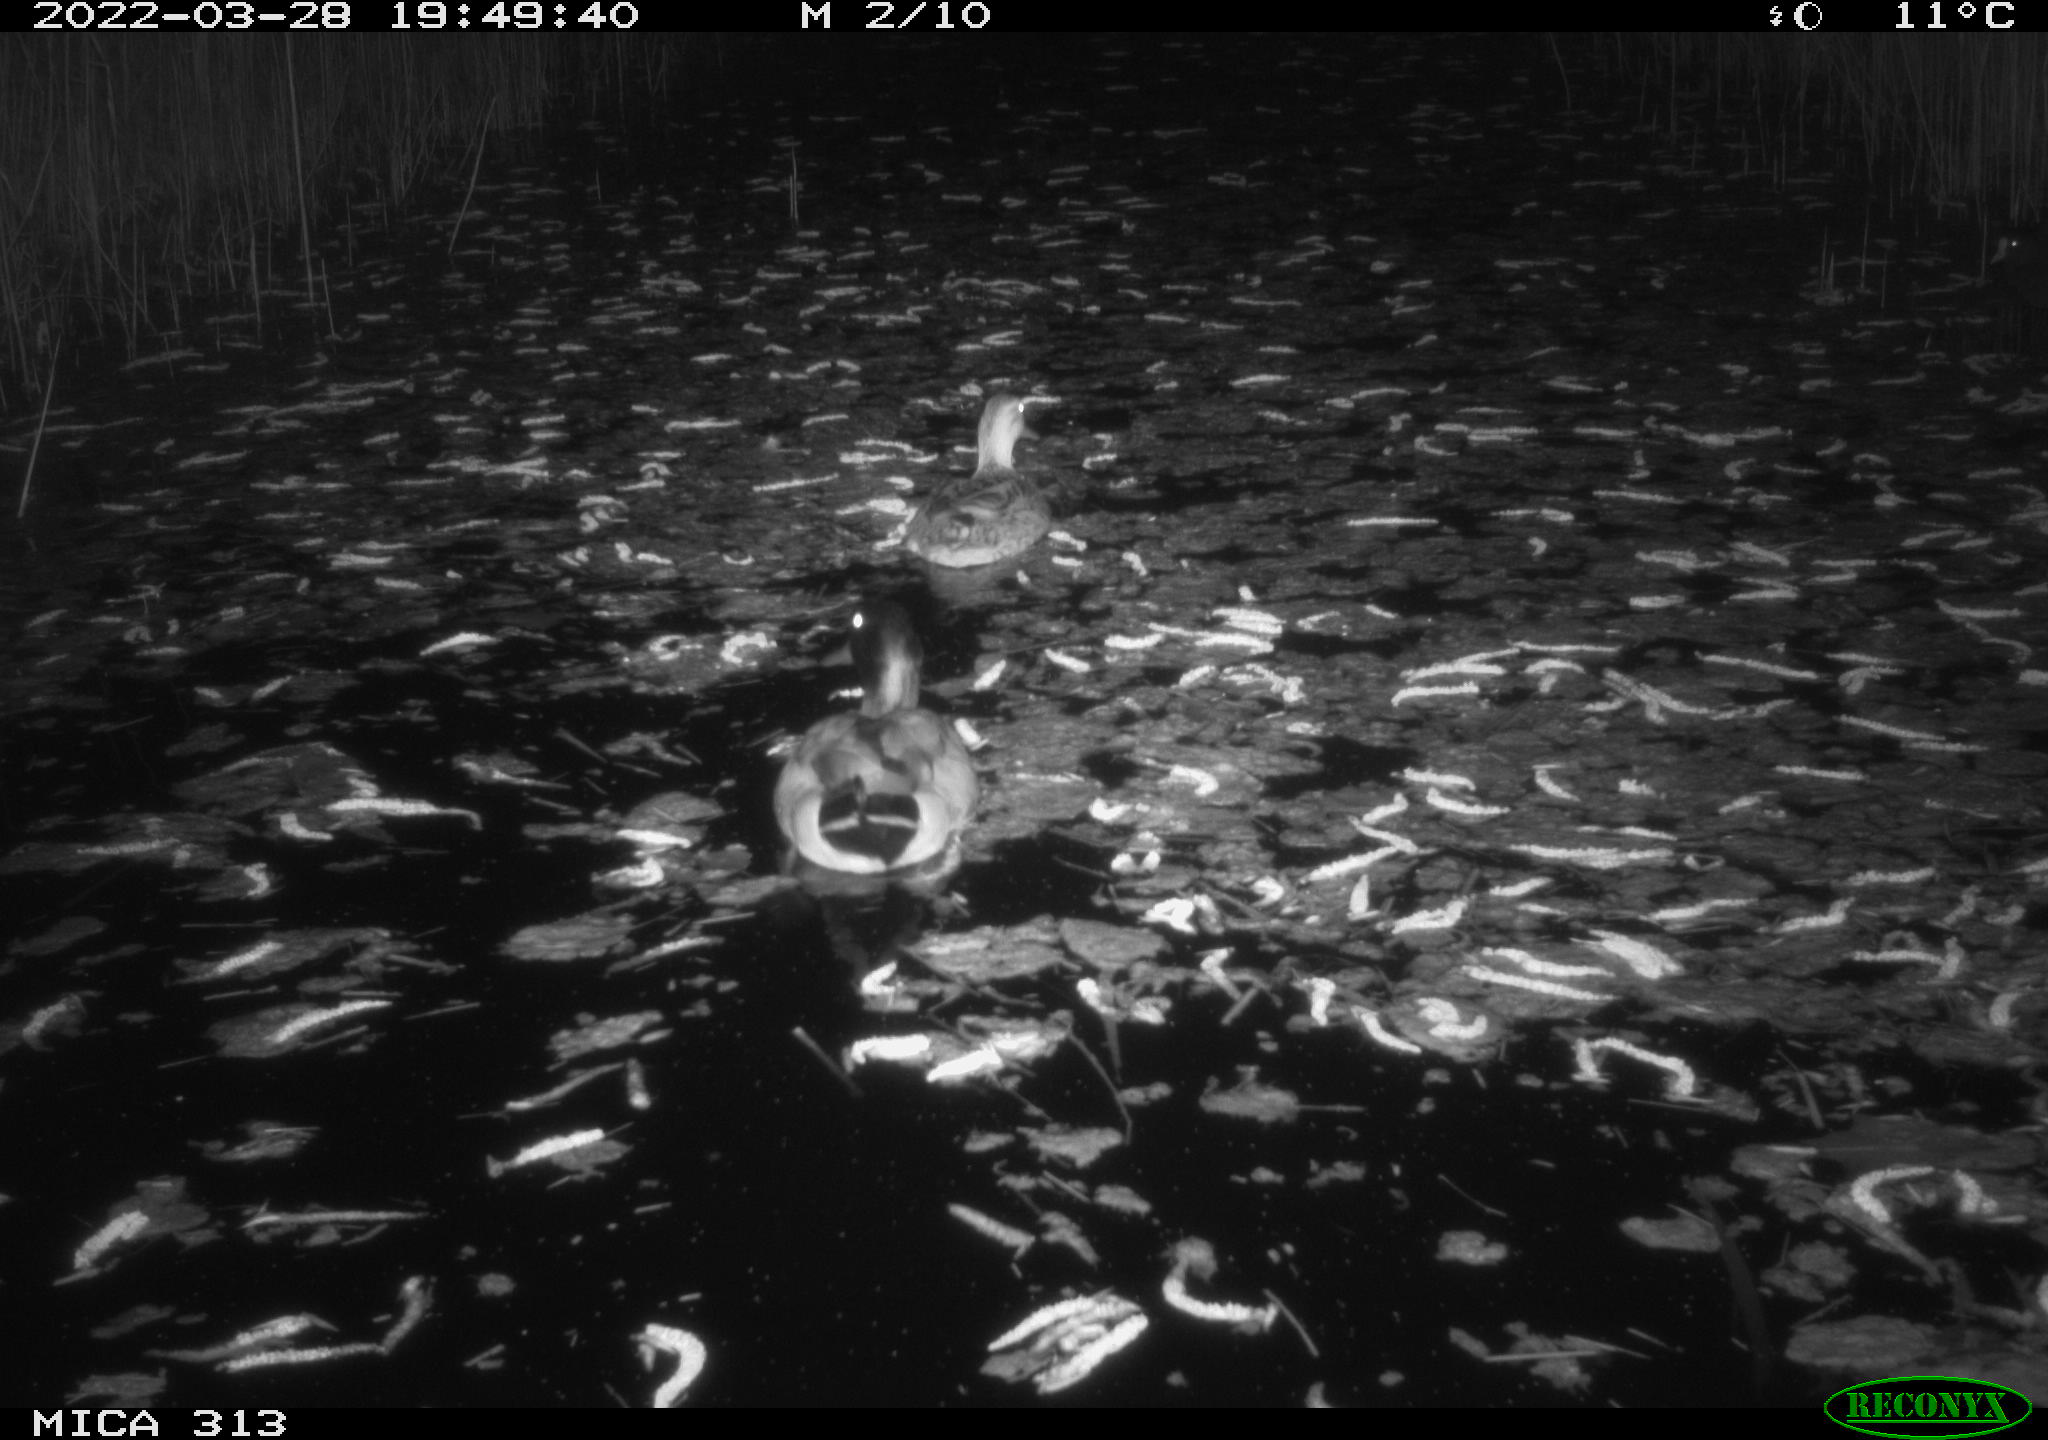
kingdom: Animalia
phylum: Chordata
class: Aves
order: Anseriformes
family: Anatidae
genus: Anas
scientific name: Anas platyrhynchos
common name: Mallard
